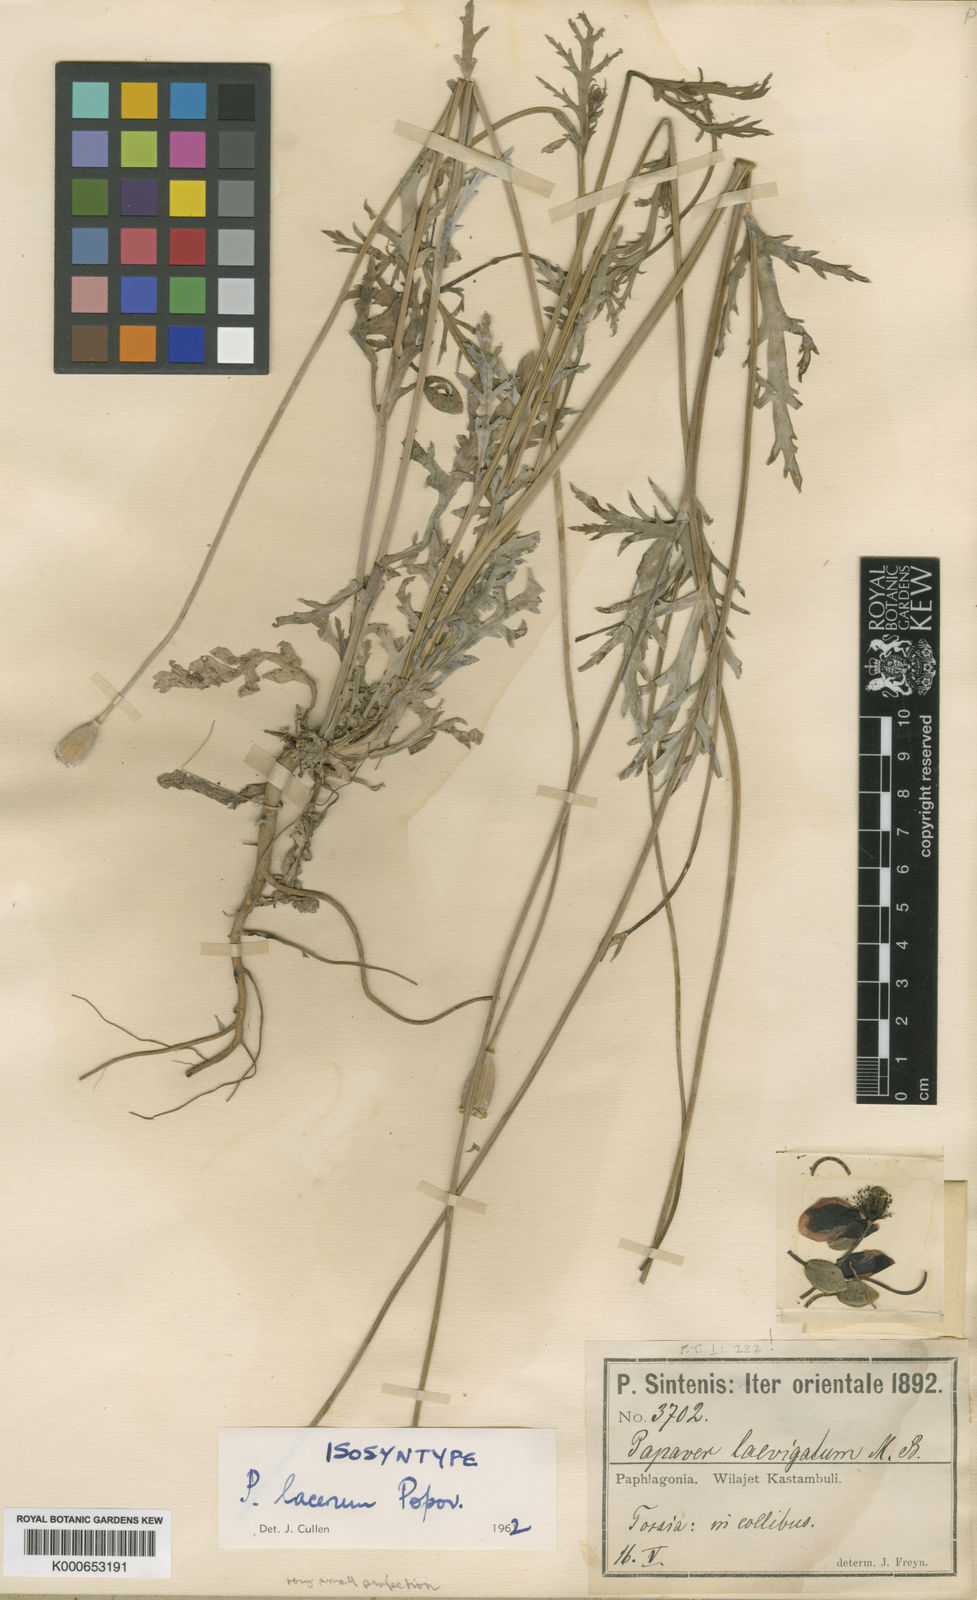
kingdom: Plantae
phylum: Tracheophyta
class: Magnoliopsida
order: Ranunculales
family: Papaveraceae
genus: Papaver
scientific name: Papaver laevigatum
